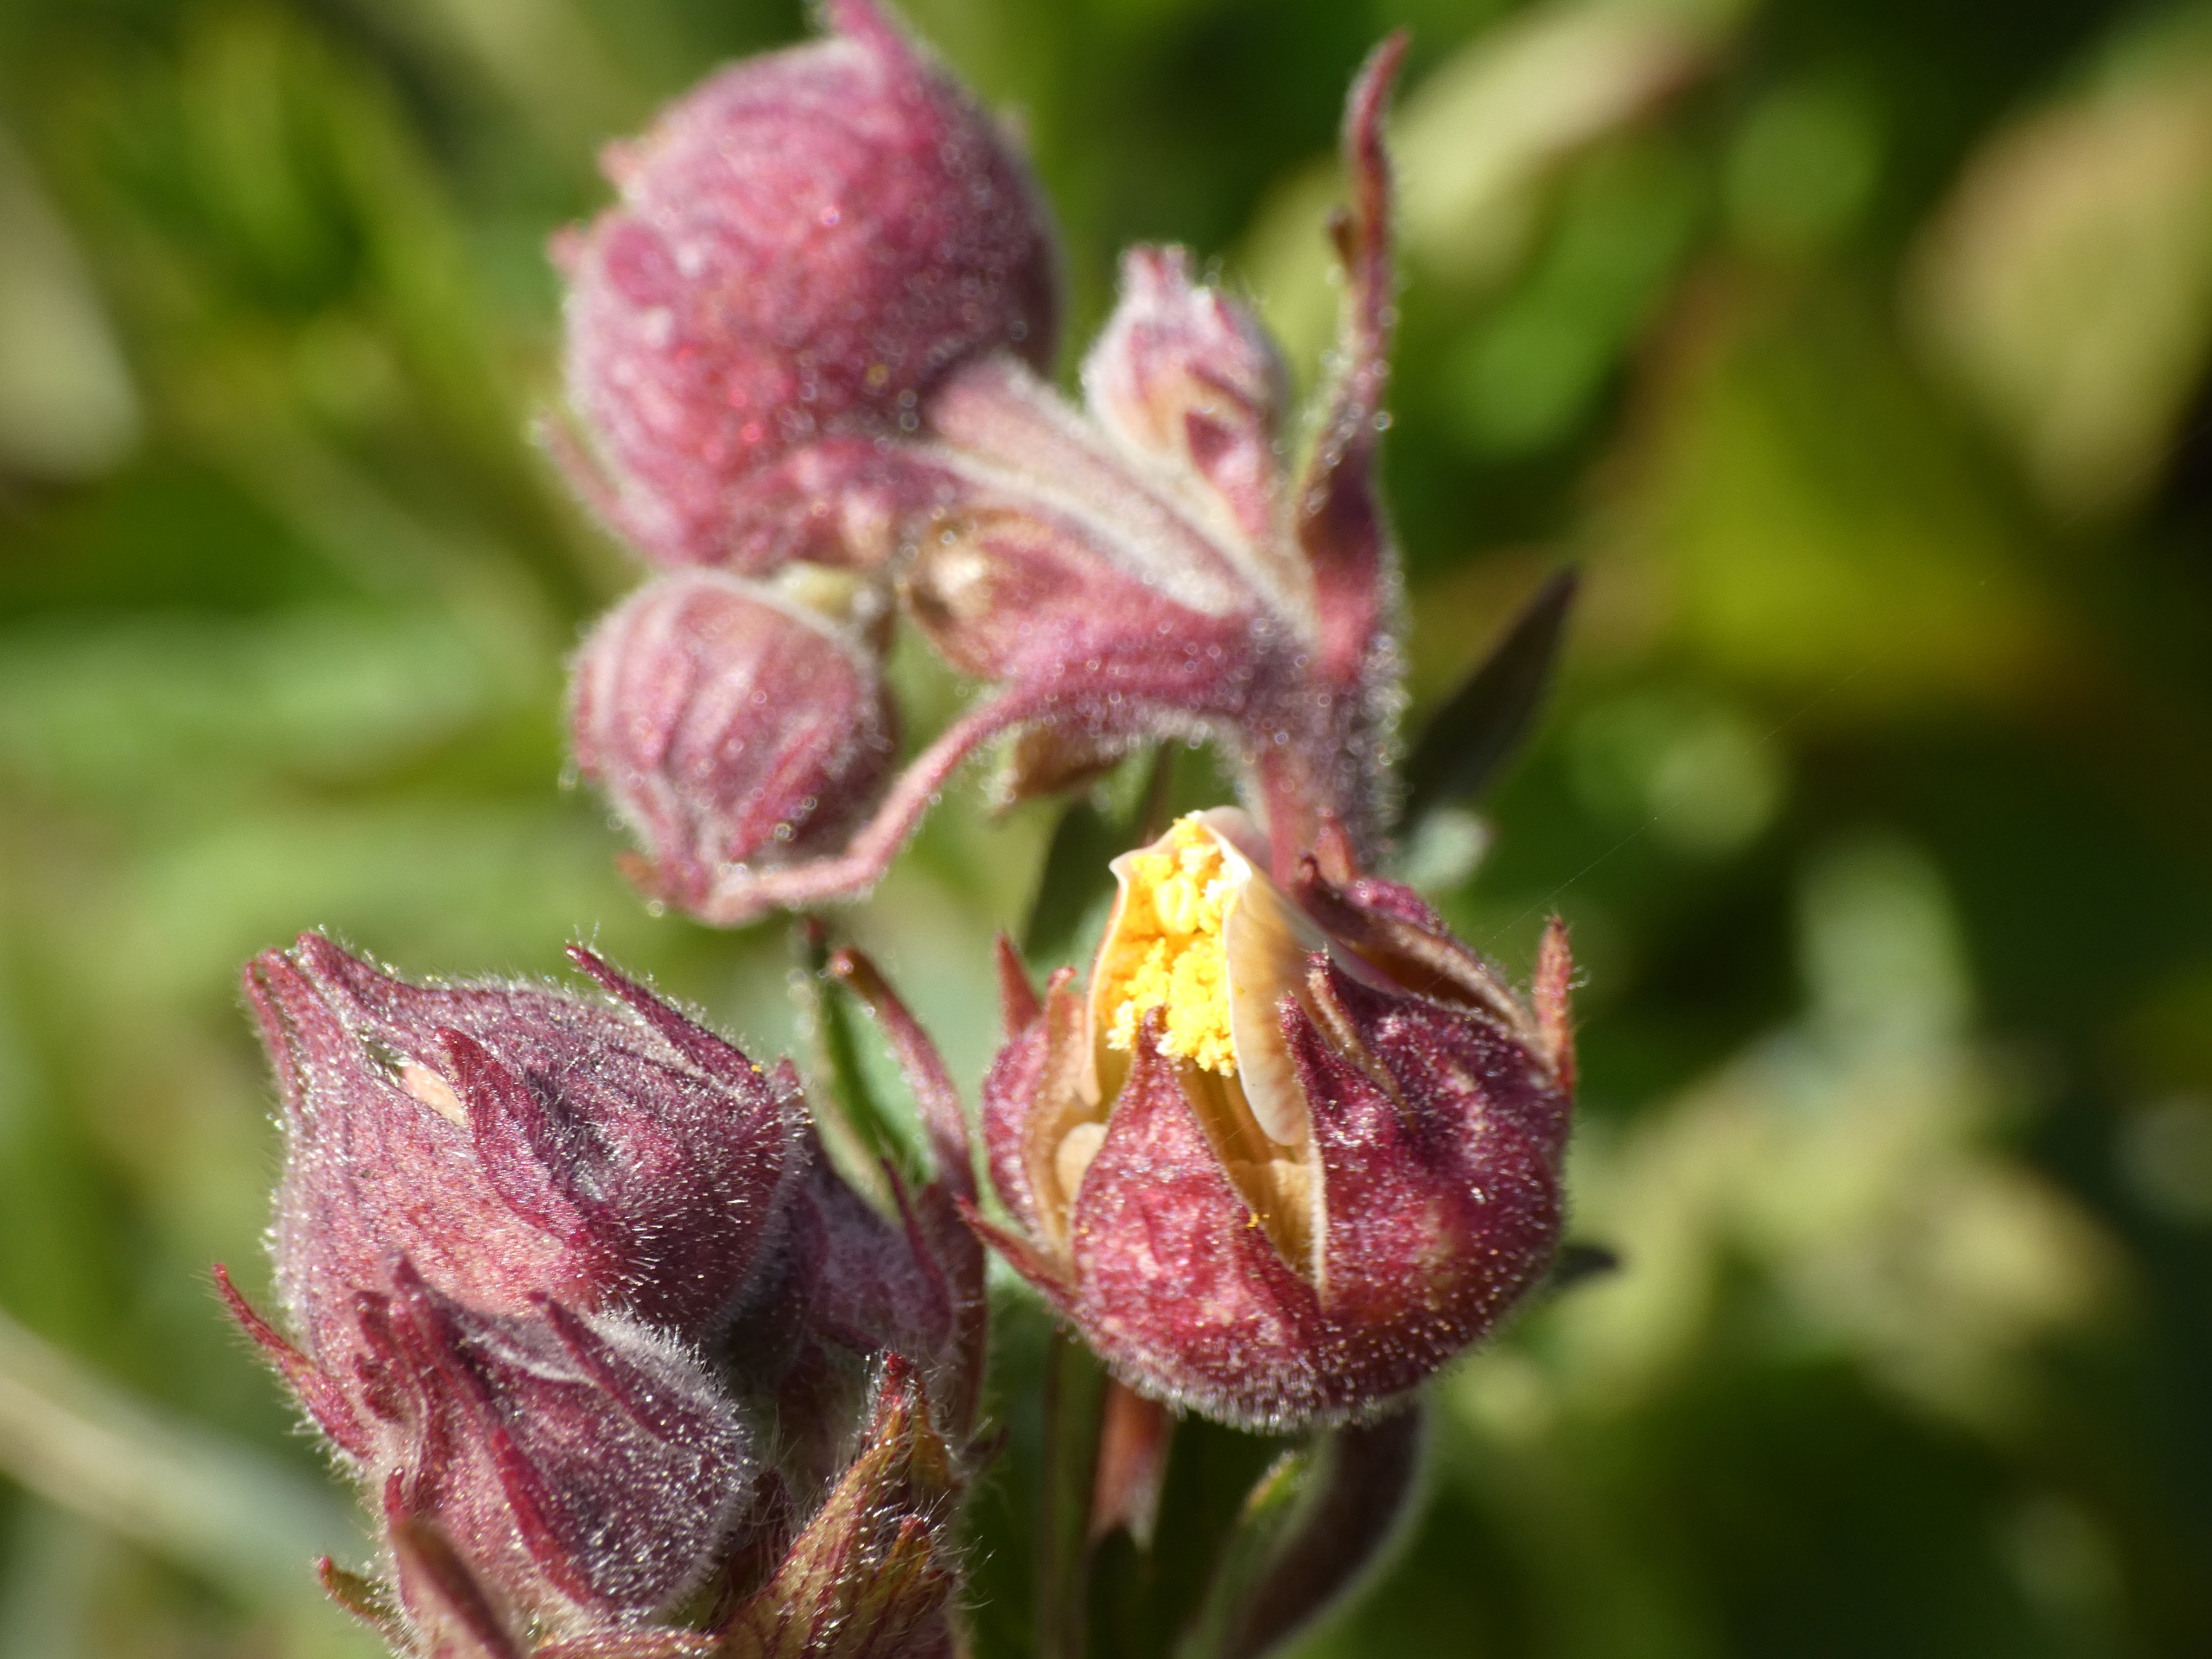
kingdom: Plantae
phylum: Tracheophyta
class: Magnoliopsida
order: Rosales
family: Rosaceae
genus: Geum
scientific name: Geum rivale
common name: Eng-nellikerod
